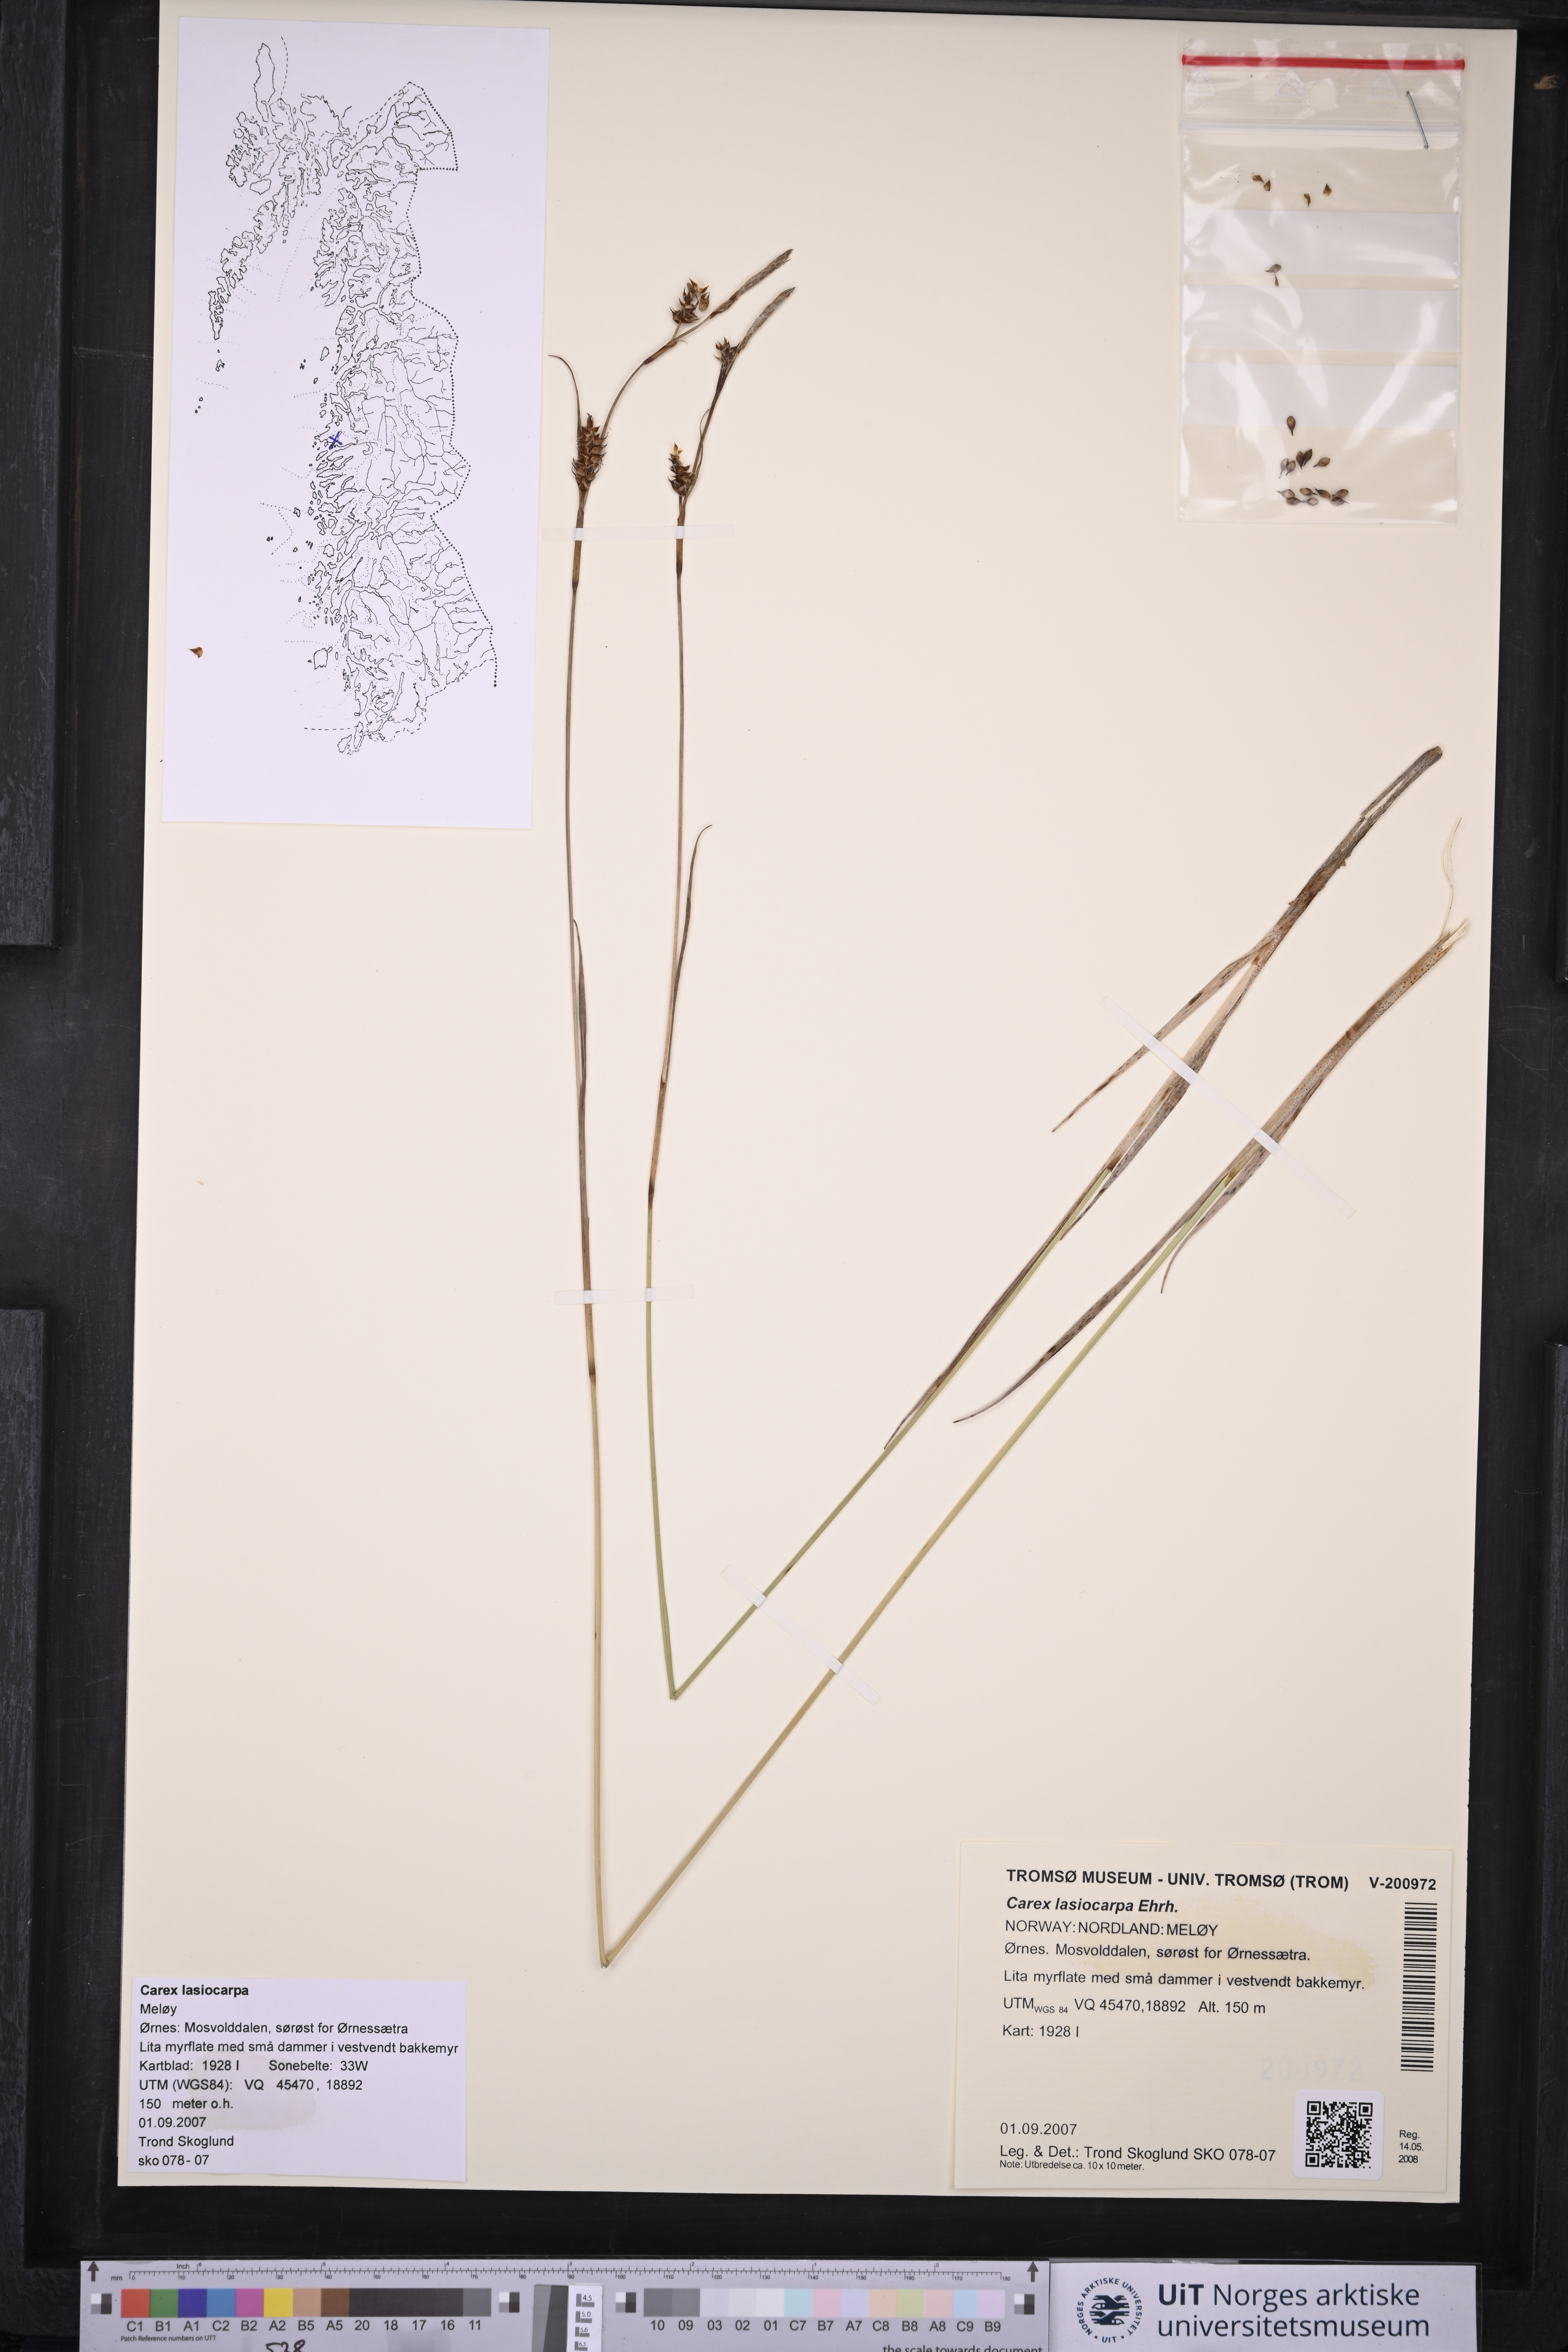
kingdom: Plantae
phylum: Tracheophyta
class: Liliopsida
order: Poales
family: Cyperaceae
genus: Carex
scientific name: Carex lasiocarpa
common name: Slender sedge
